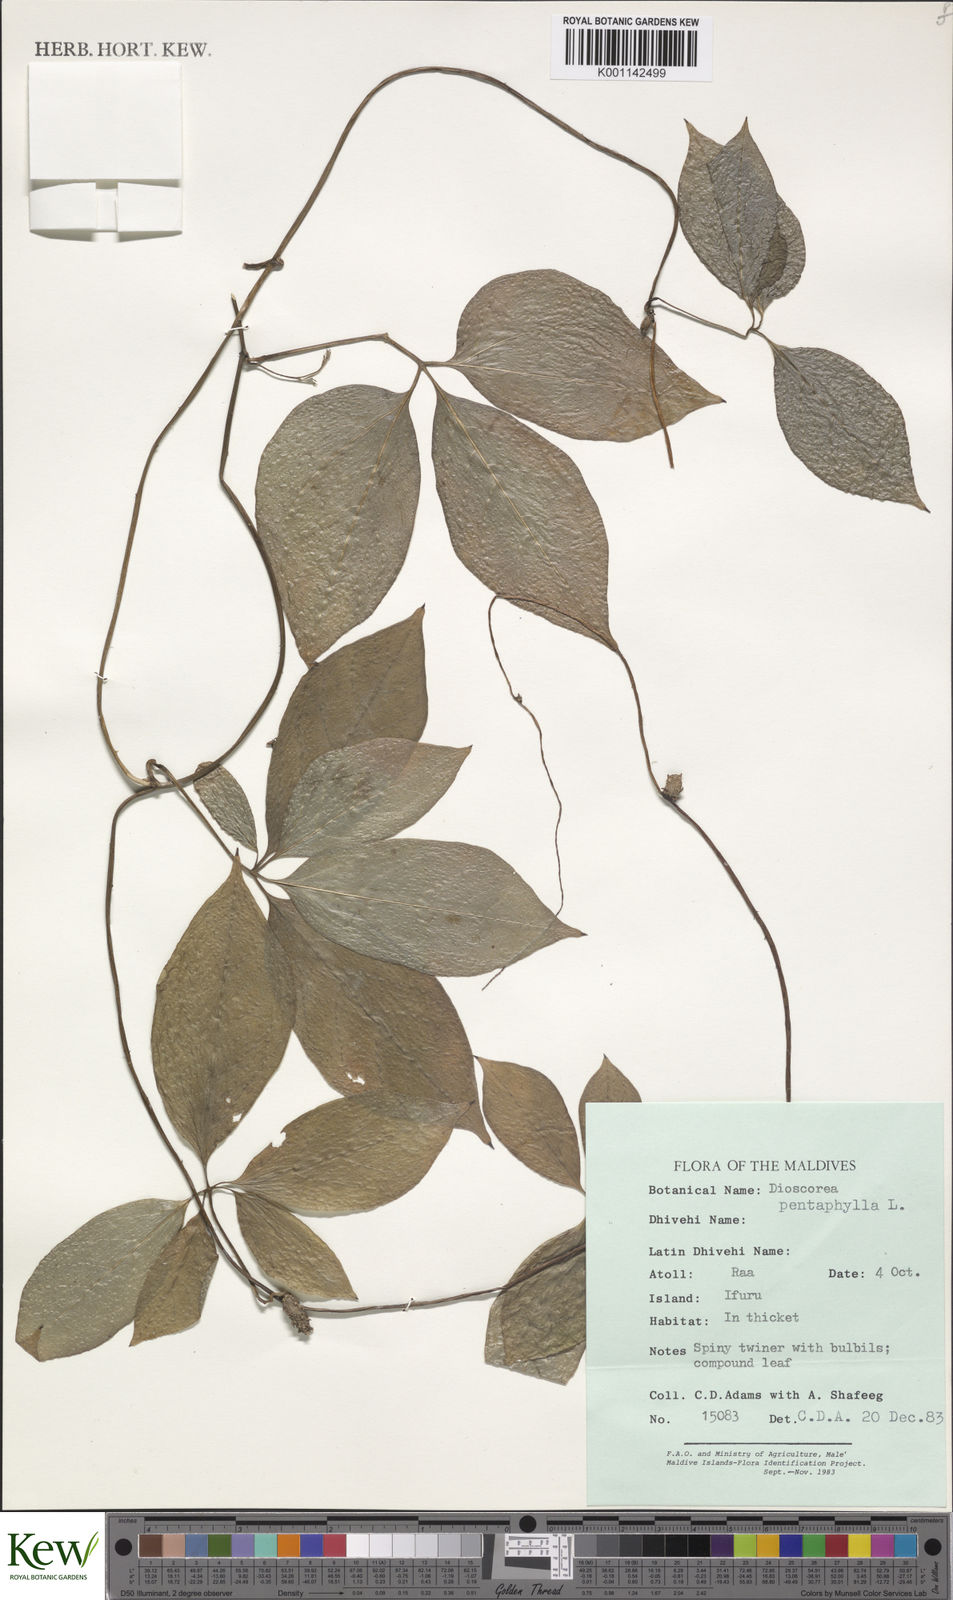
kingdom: Plantae
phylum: Tracheophyta
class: Liliopsida
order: Dioscoreales
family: Dioscoreaceae
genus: Dioscorea
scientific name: Dioscorea pentaphylla
